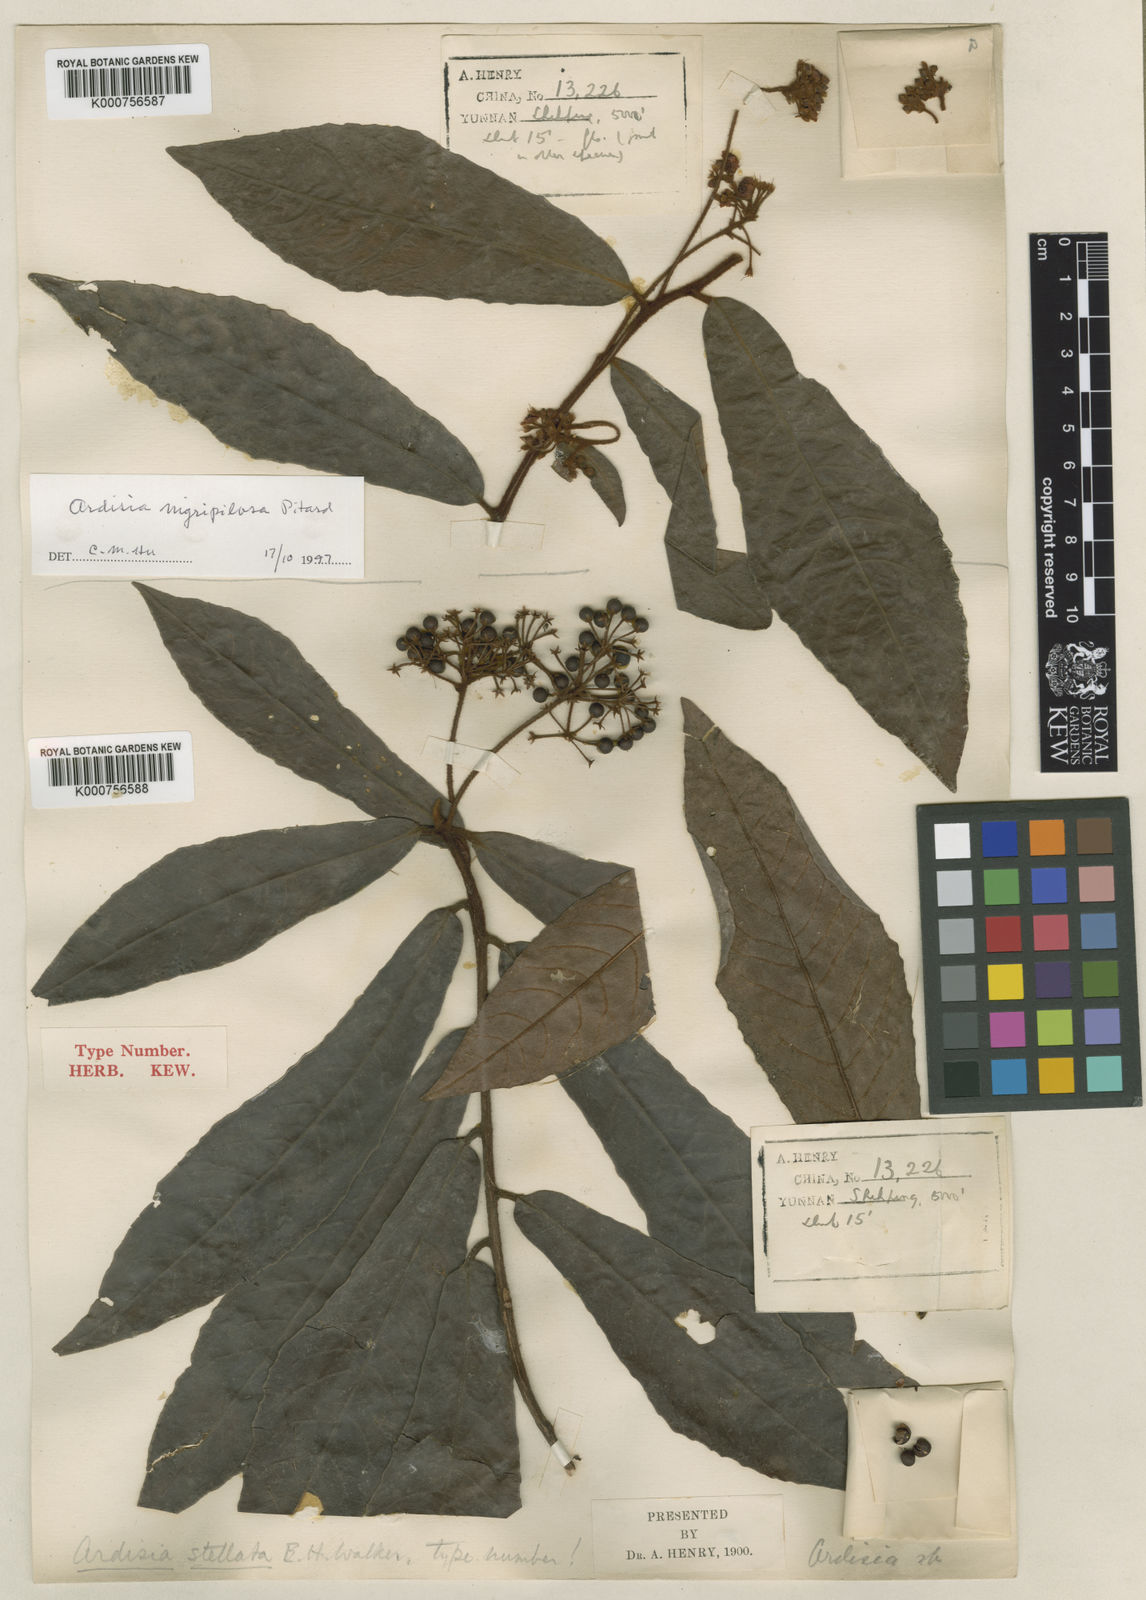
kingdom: Plantae
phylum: Tracheophyta
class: Magnoliopsida
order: Ericales
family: Primulaceae
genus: Ardisia
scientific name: Ardisia nigropilosa
